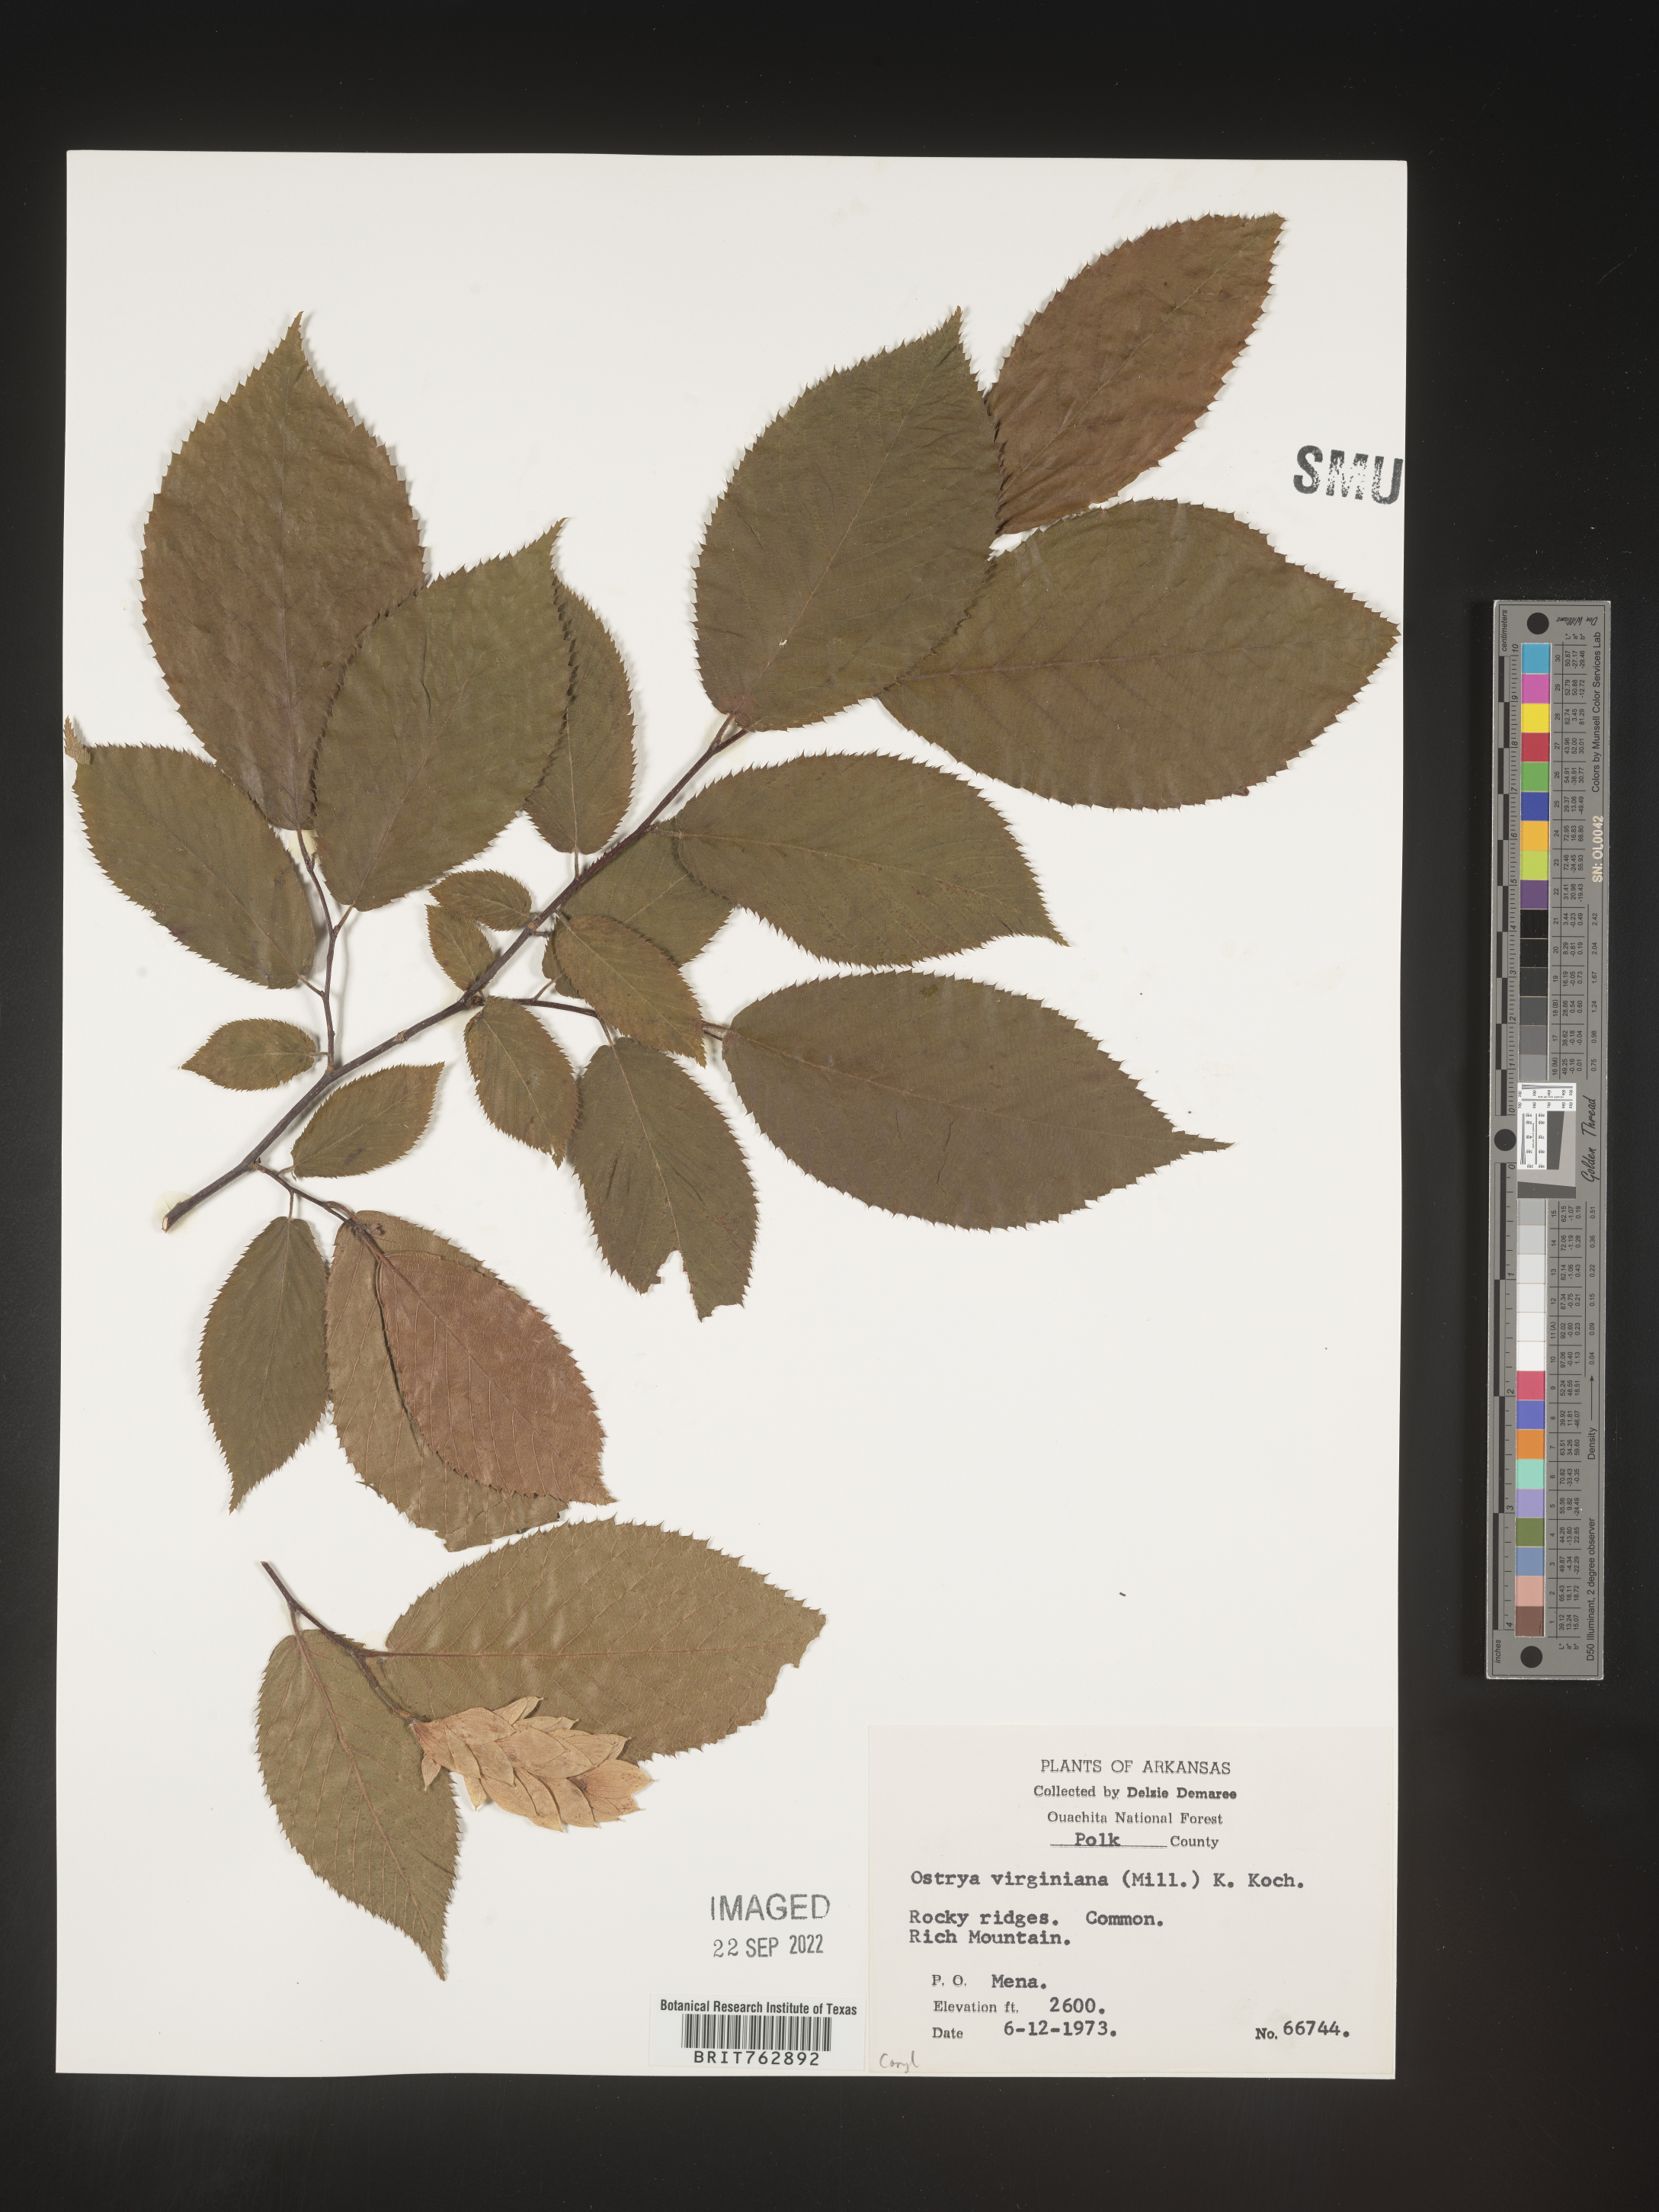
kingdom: Plantae
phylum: Tracheophyta
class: Magnoliopsida
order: Fagales
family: Betulaceae
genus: Ostrya
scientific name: Ostrya virginiana
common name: Ironwood
